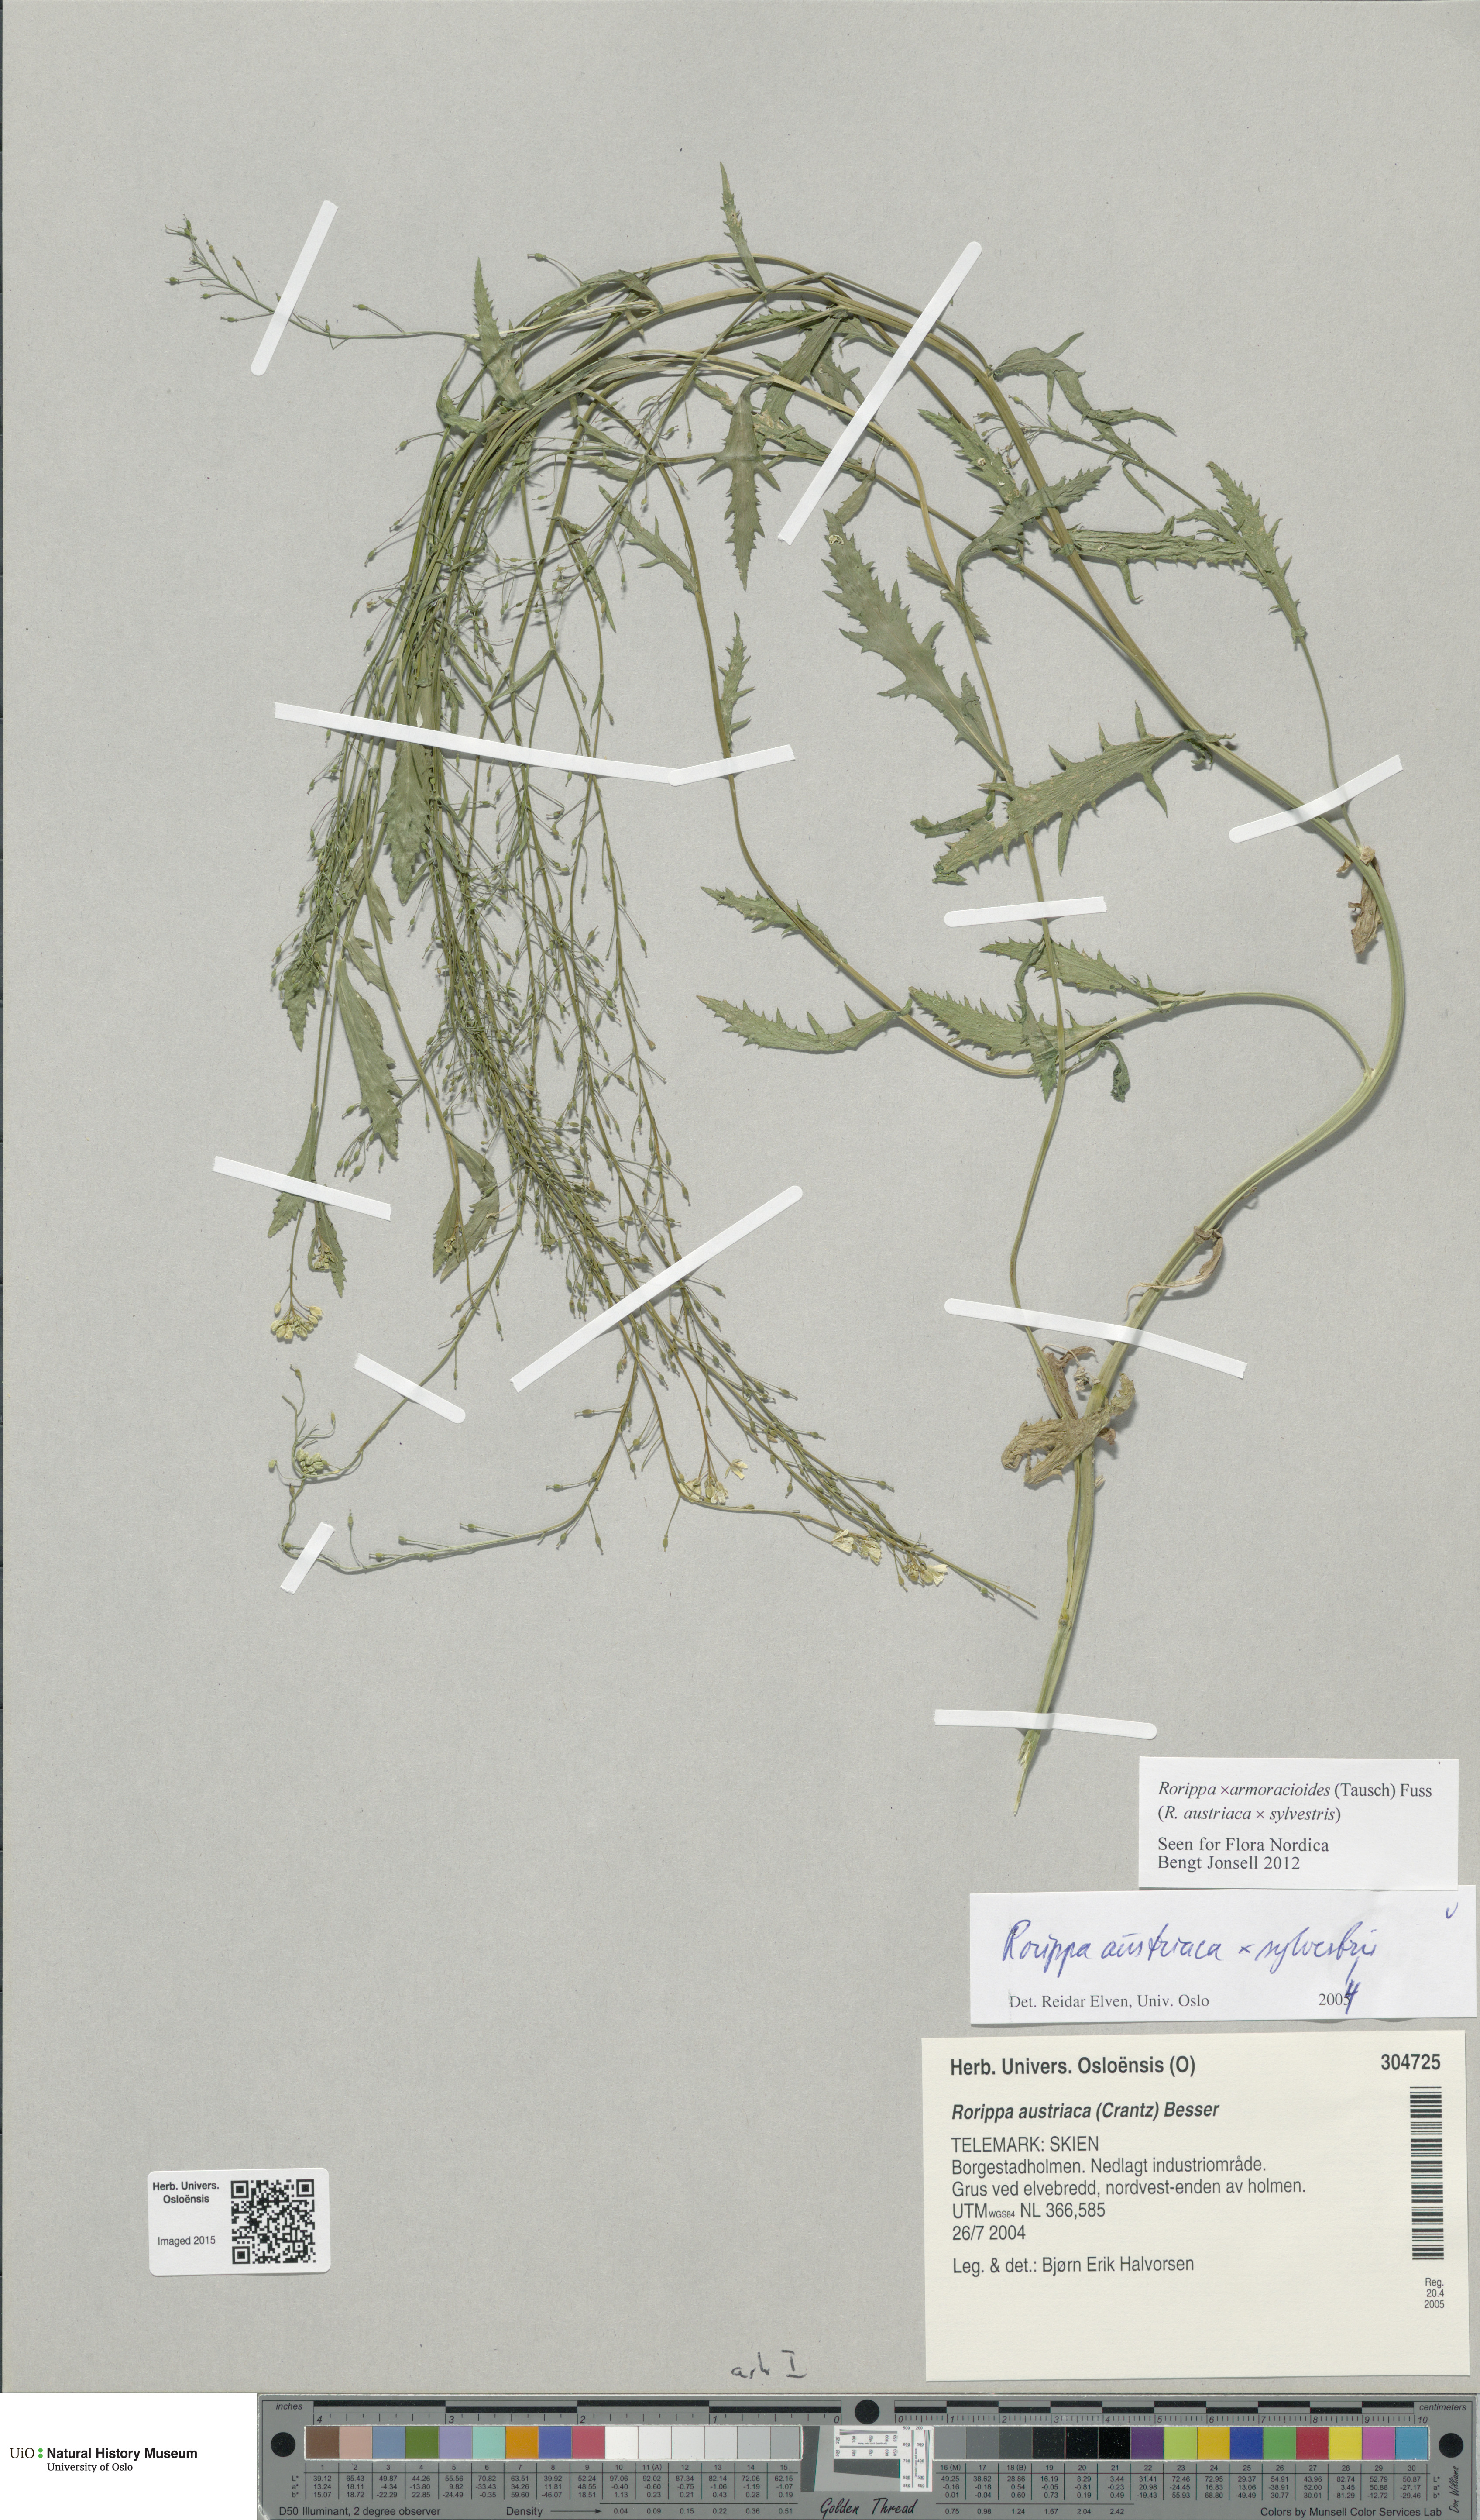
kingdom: Plantae
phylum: Tracheophyta
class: Magnoliopsida
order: Brassicales
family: Brassicaceae
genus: Rorippa
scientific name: Rorippa
